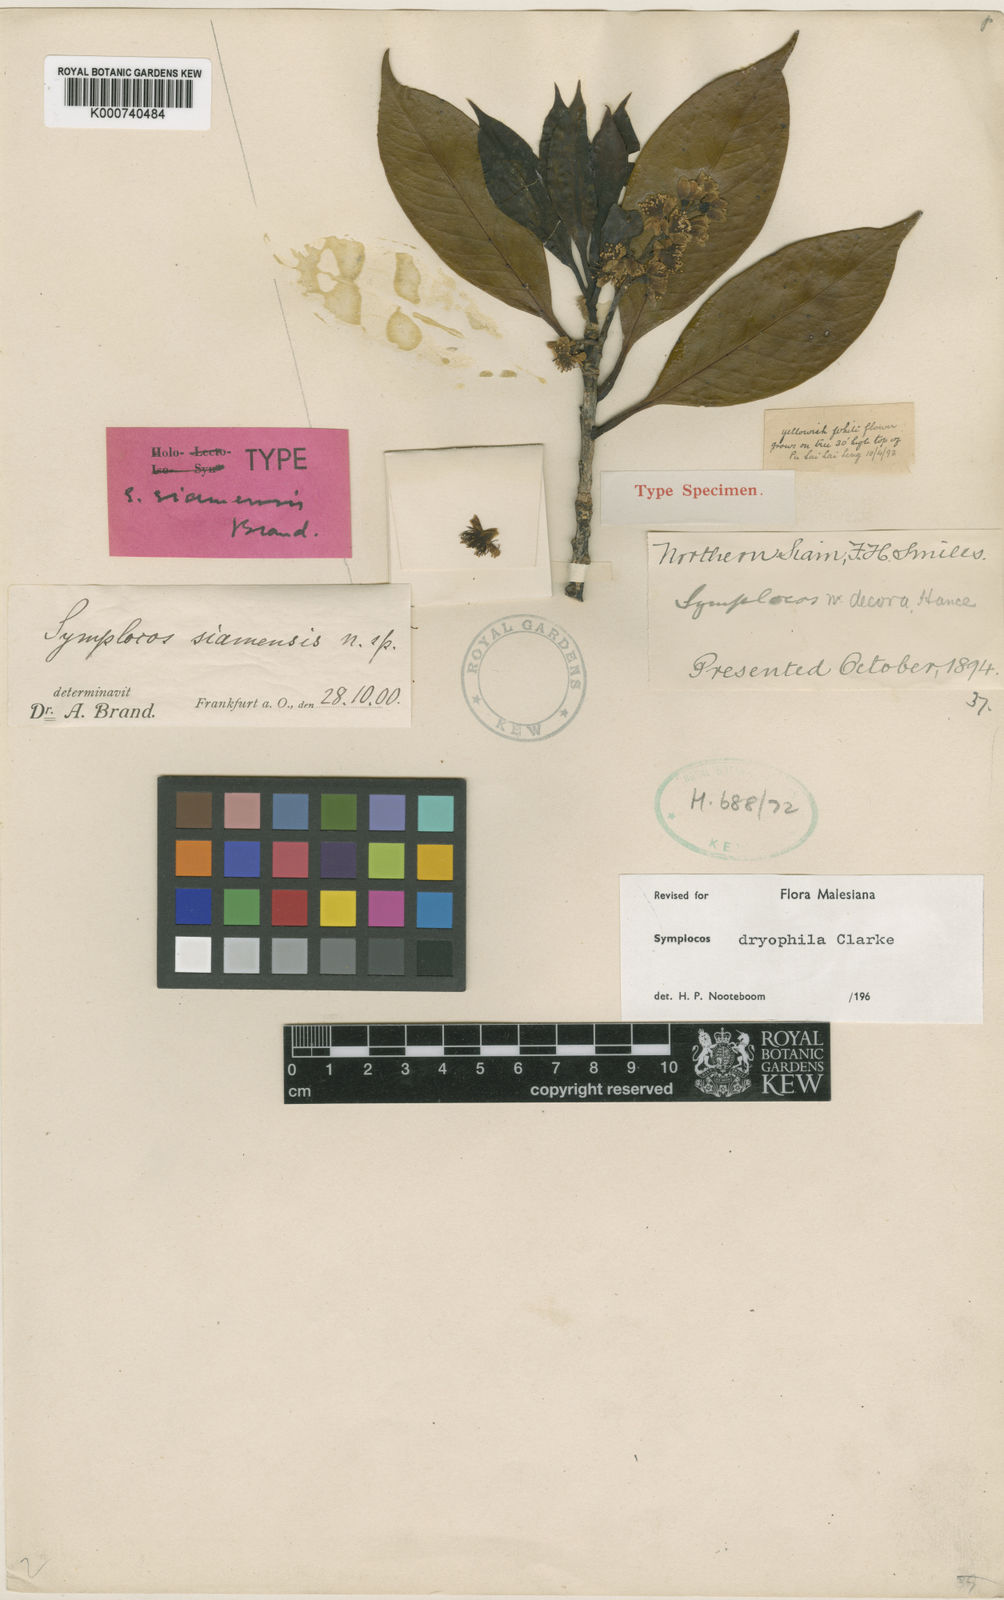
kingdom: Plantae
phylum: Tracheophyta
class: Magnoliopsida
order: Ericales
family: Symplocaceae
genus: Symplocos
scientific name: Symplocos dryophila
